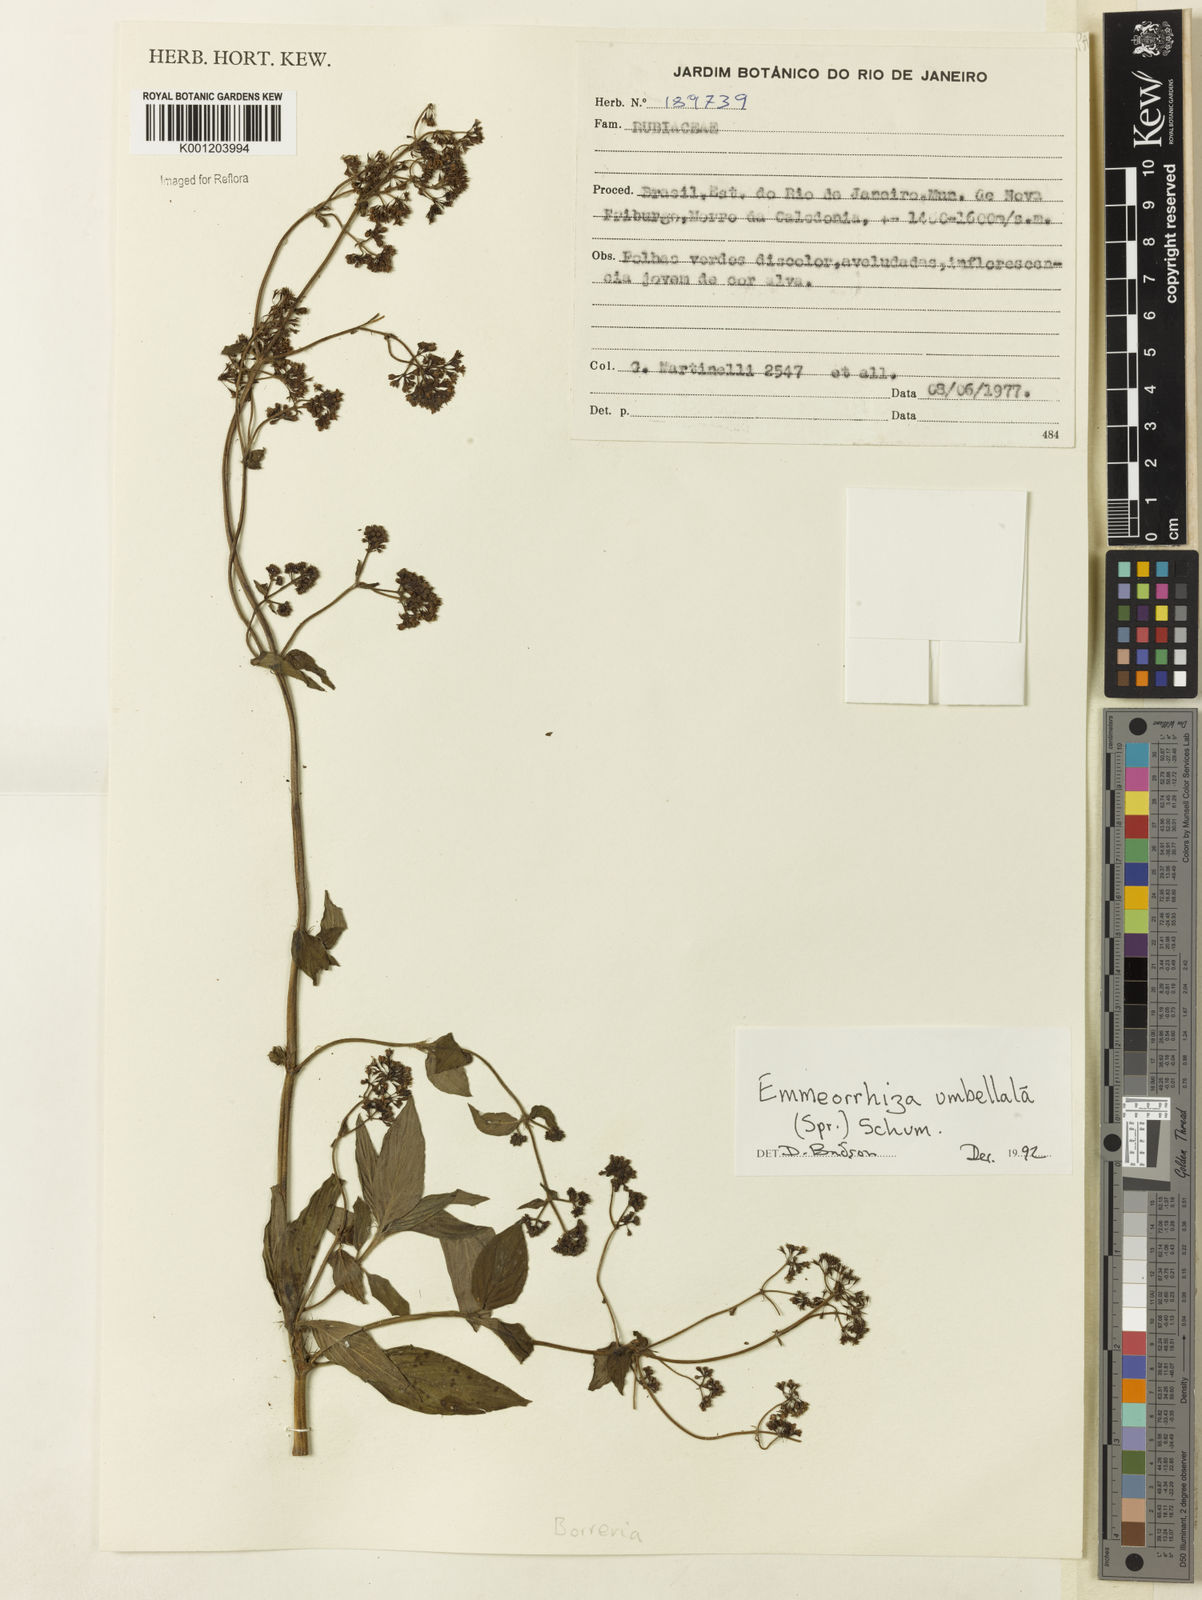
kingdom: Plantae
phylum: Tracheophyta
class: Magnoliopsida
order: Gentianales
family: Rubiaceae
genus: Emmeorhiza
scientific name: Emmeorhiza umbellata
